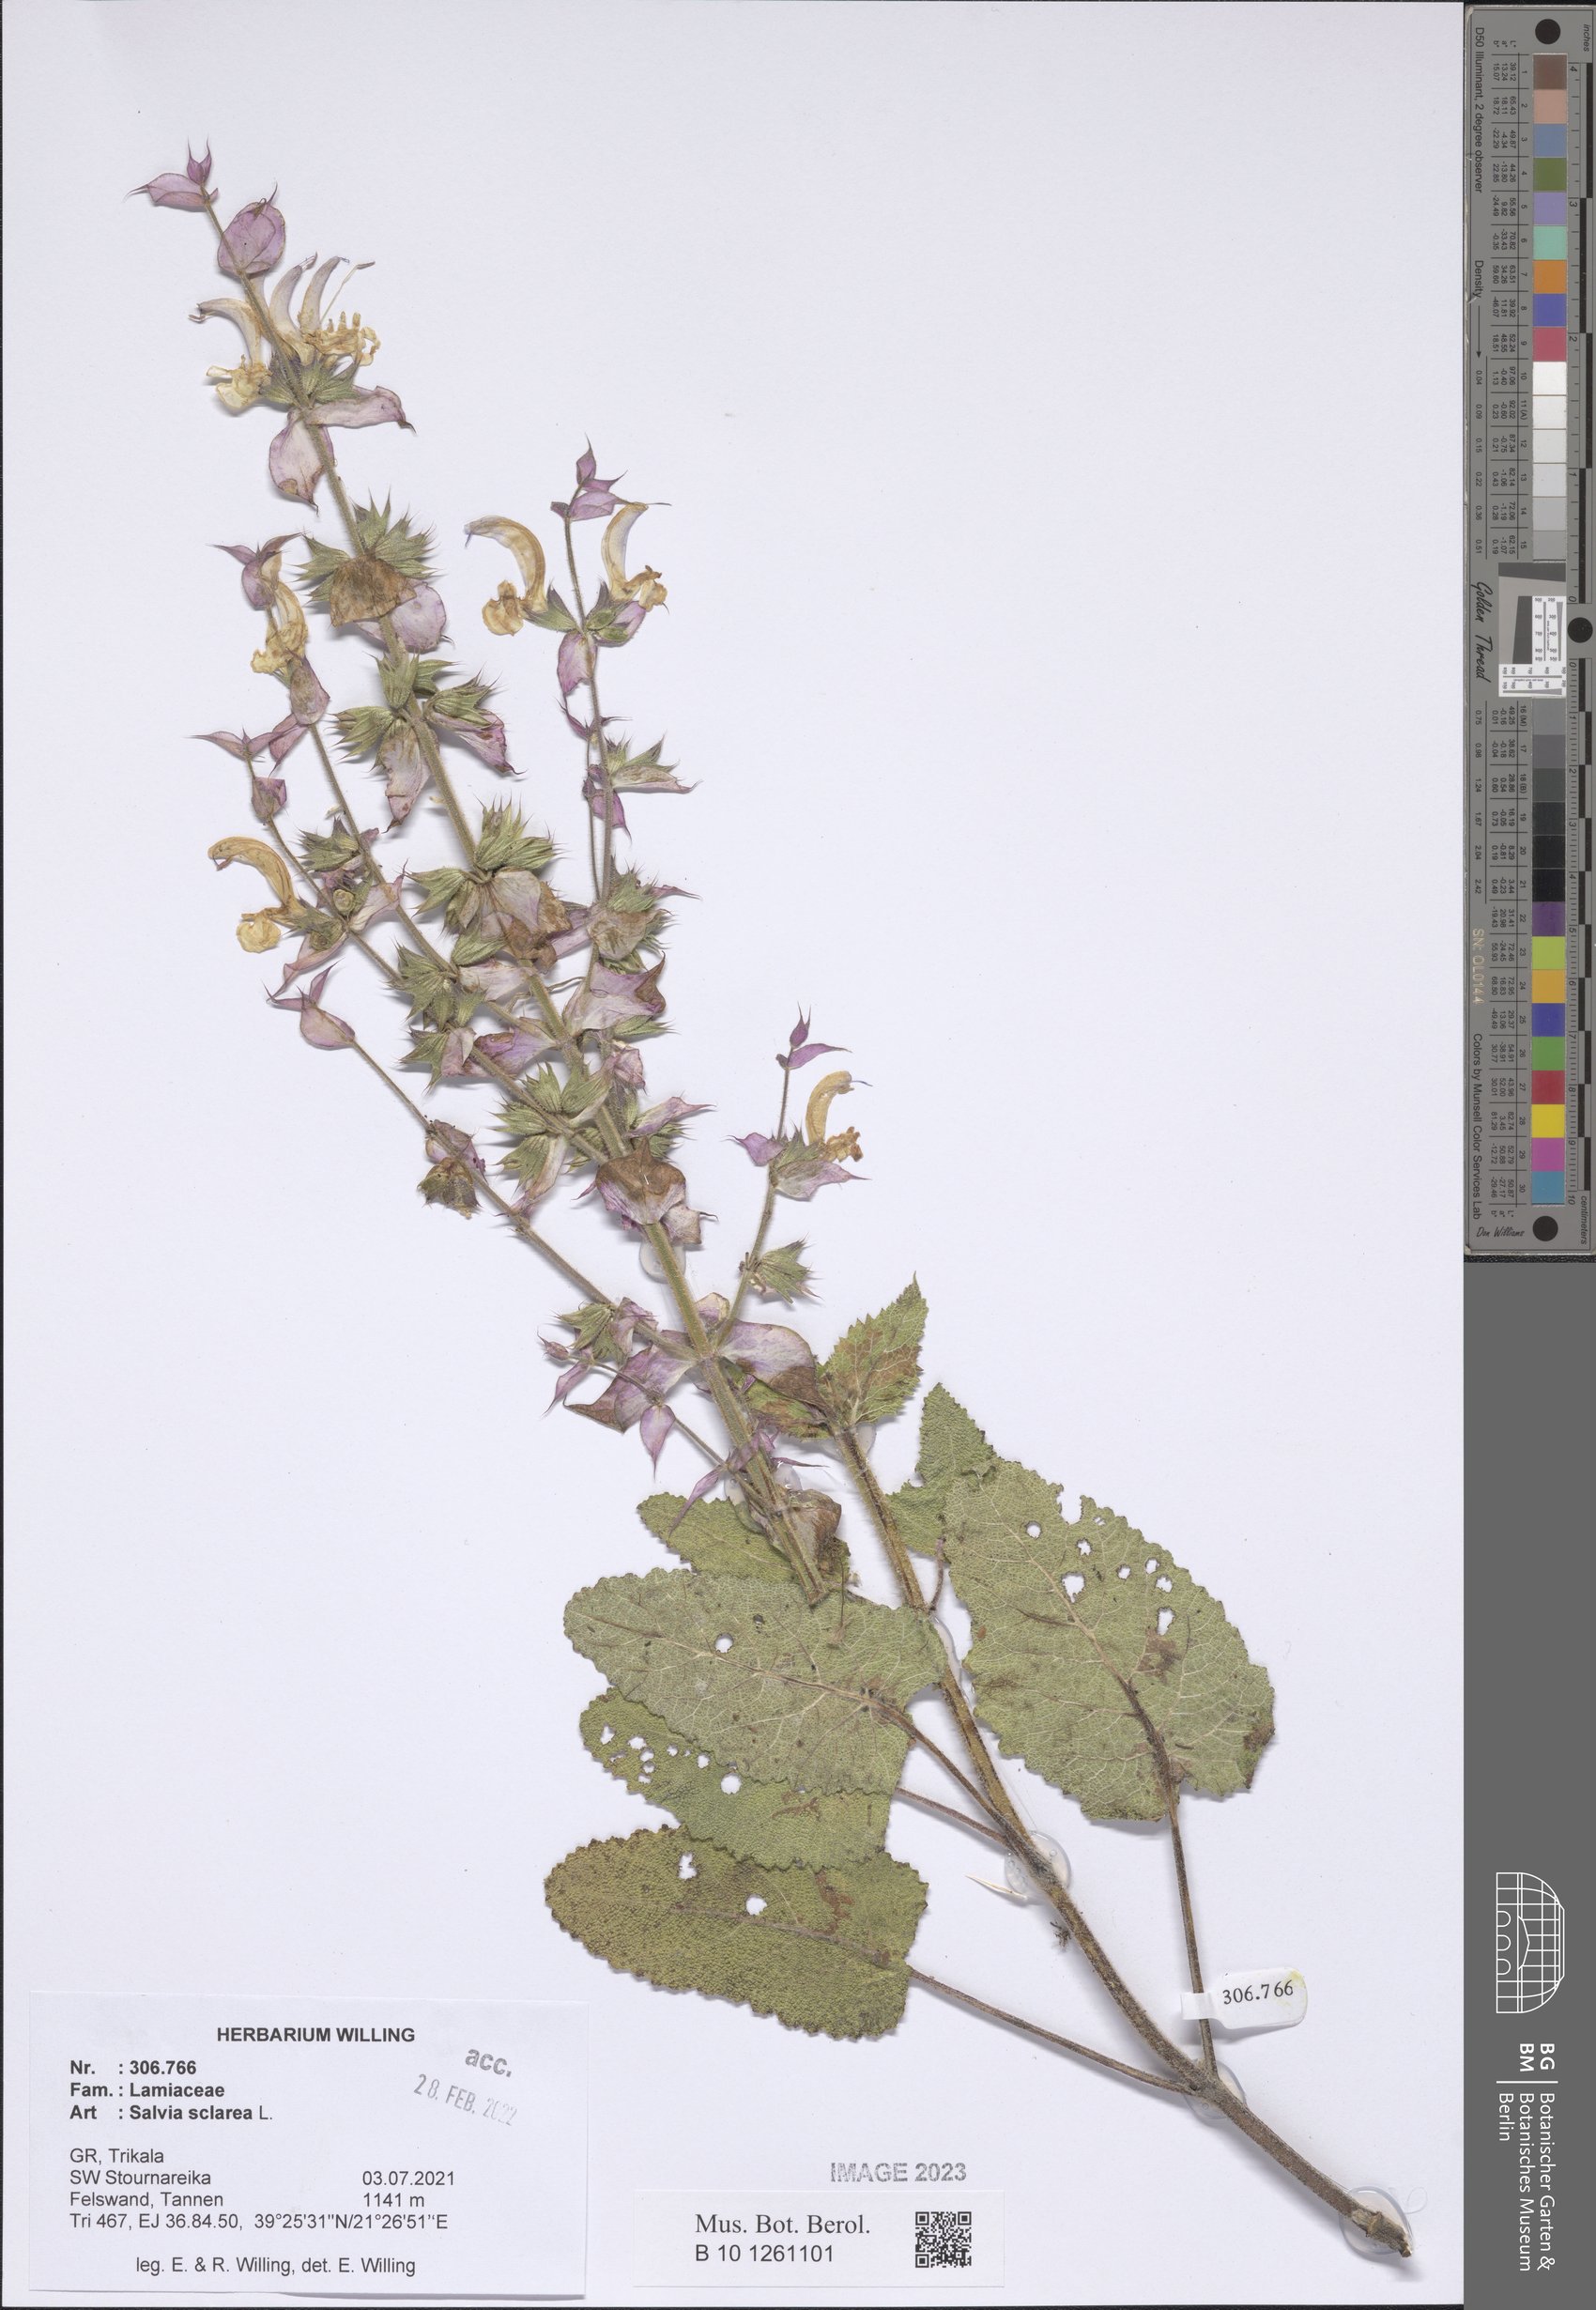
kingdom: Plantae
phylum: Tracheophyta
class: Magnoliopsida
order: Lamiales
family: Lamiaceae
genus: Salvia
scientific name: Salvia sclarea
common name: Clary
